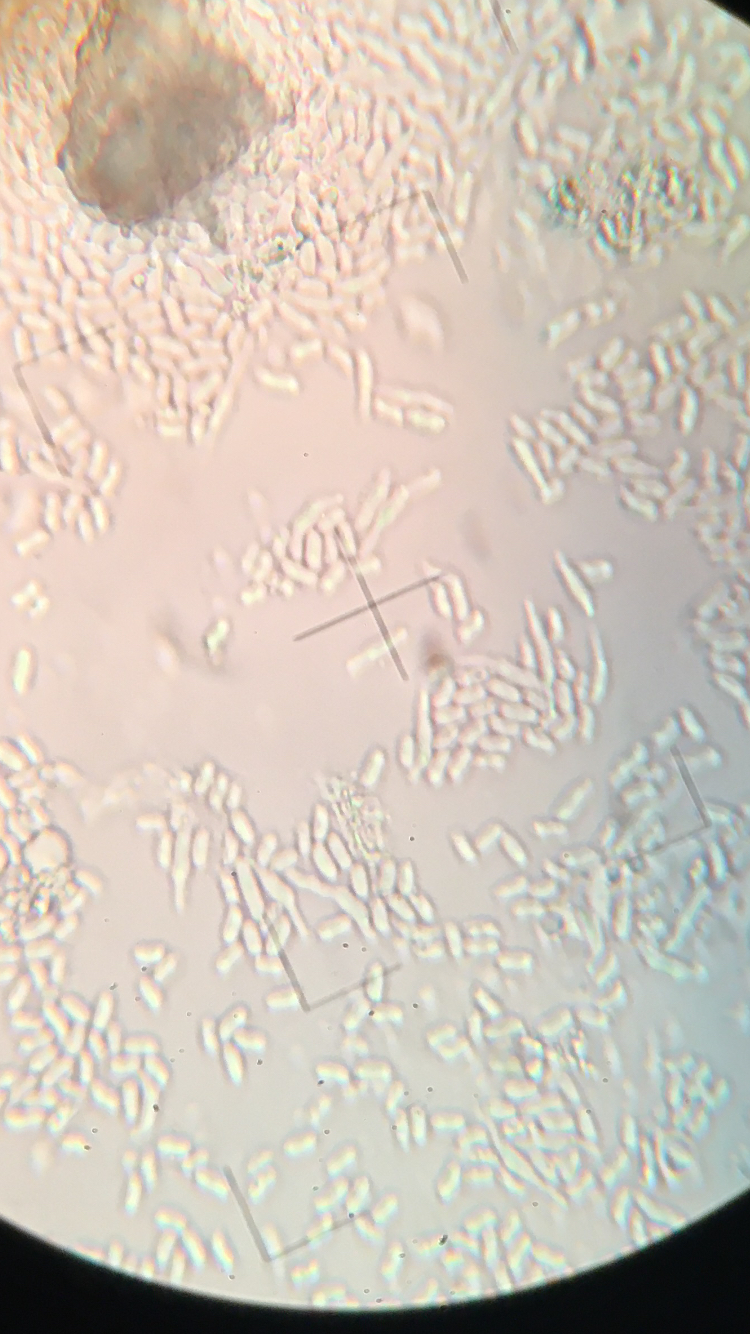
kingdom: Fungi
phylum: Basidiomycota
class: Agaricomycetes
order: Agaricales
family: Physalacriaceae
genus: Flammulina
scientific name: Flammulina elastica
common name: pile-fløjlsfod
